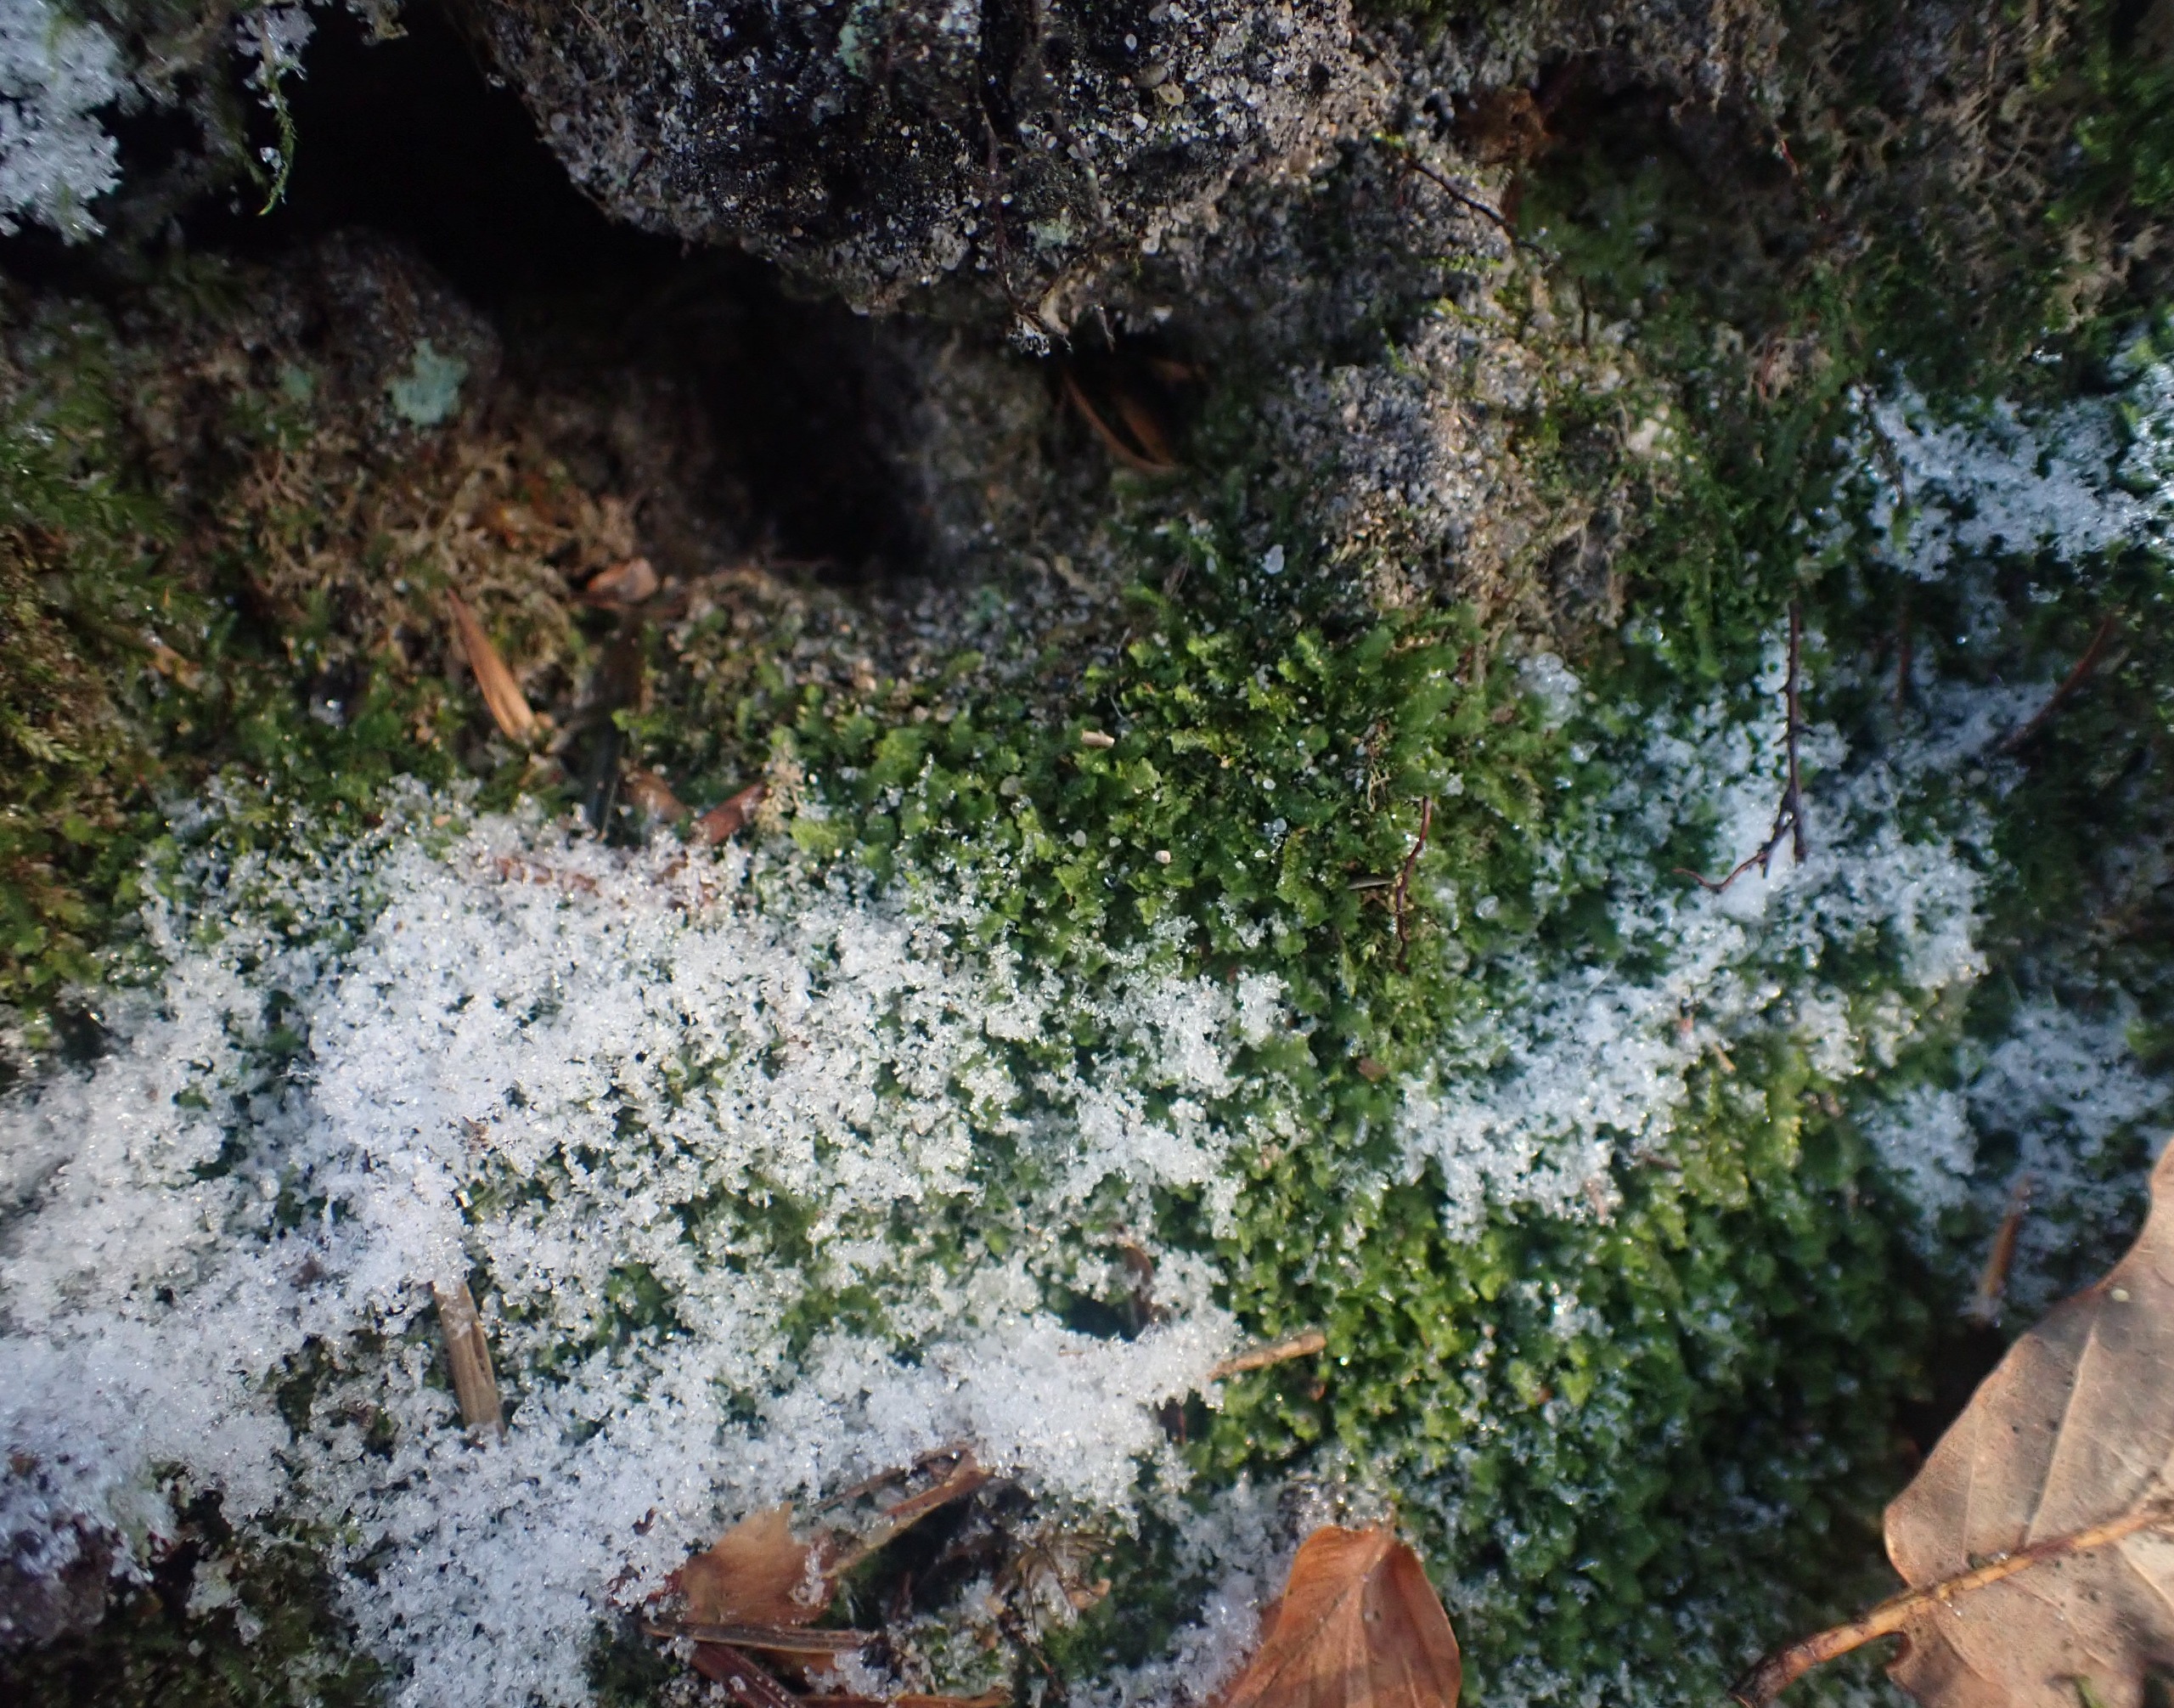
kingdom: Plantae
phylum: Marchantiophyta
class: Jungermanniopsida
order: Jungermanniales
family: Scapaniaceae
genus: Diplophyllum
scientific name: Diplophyllum albicans
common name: Stribet dobbeltblad
